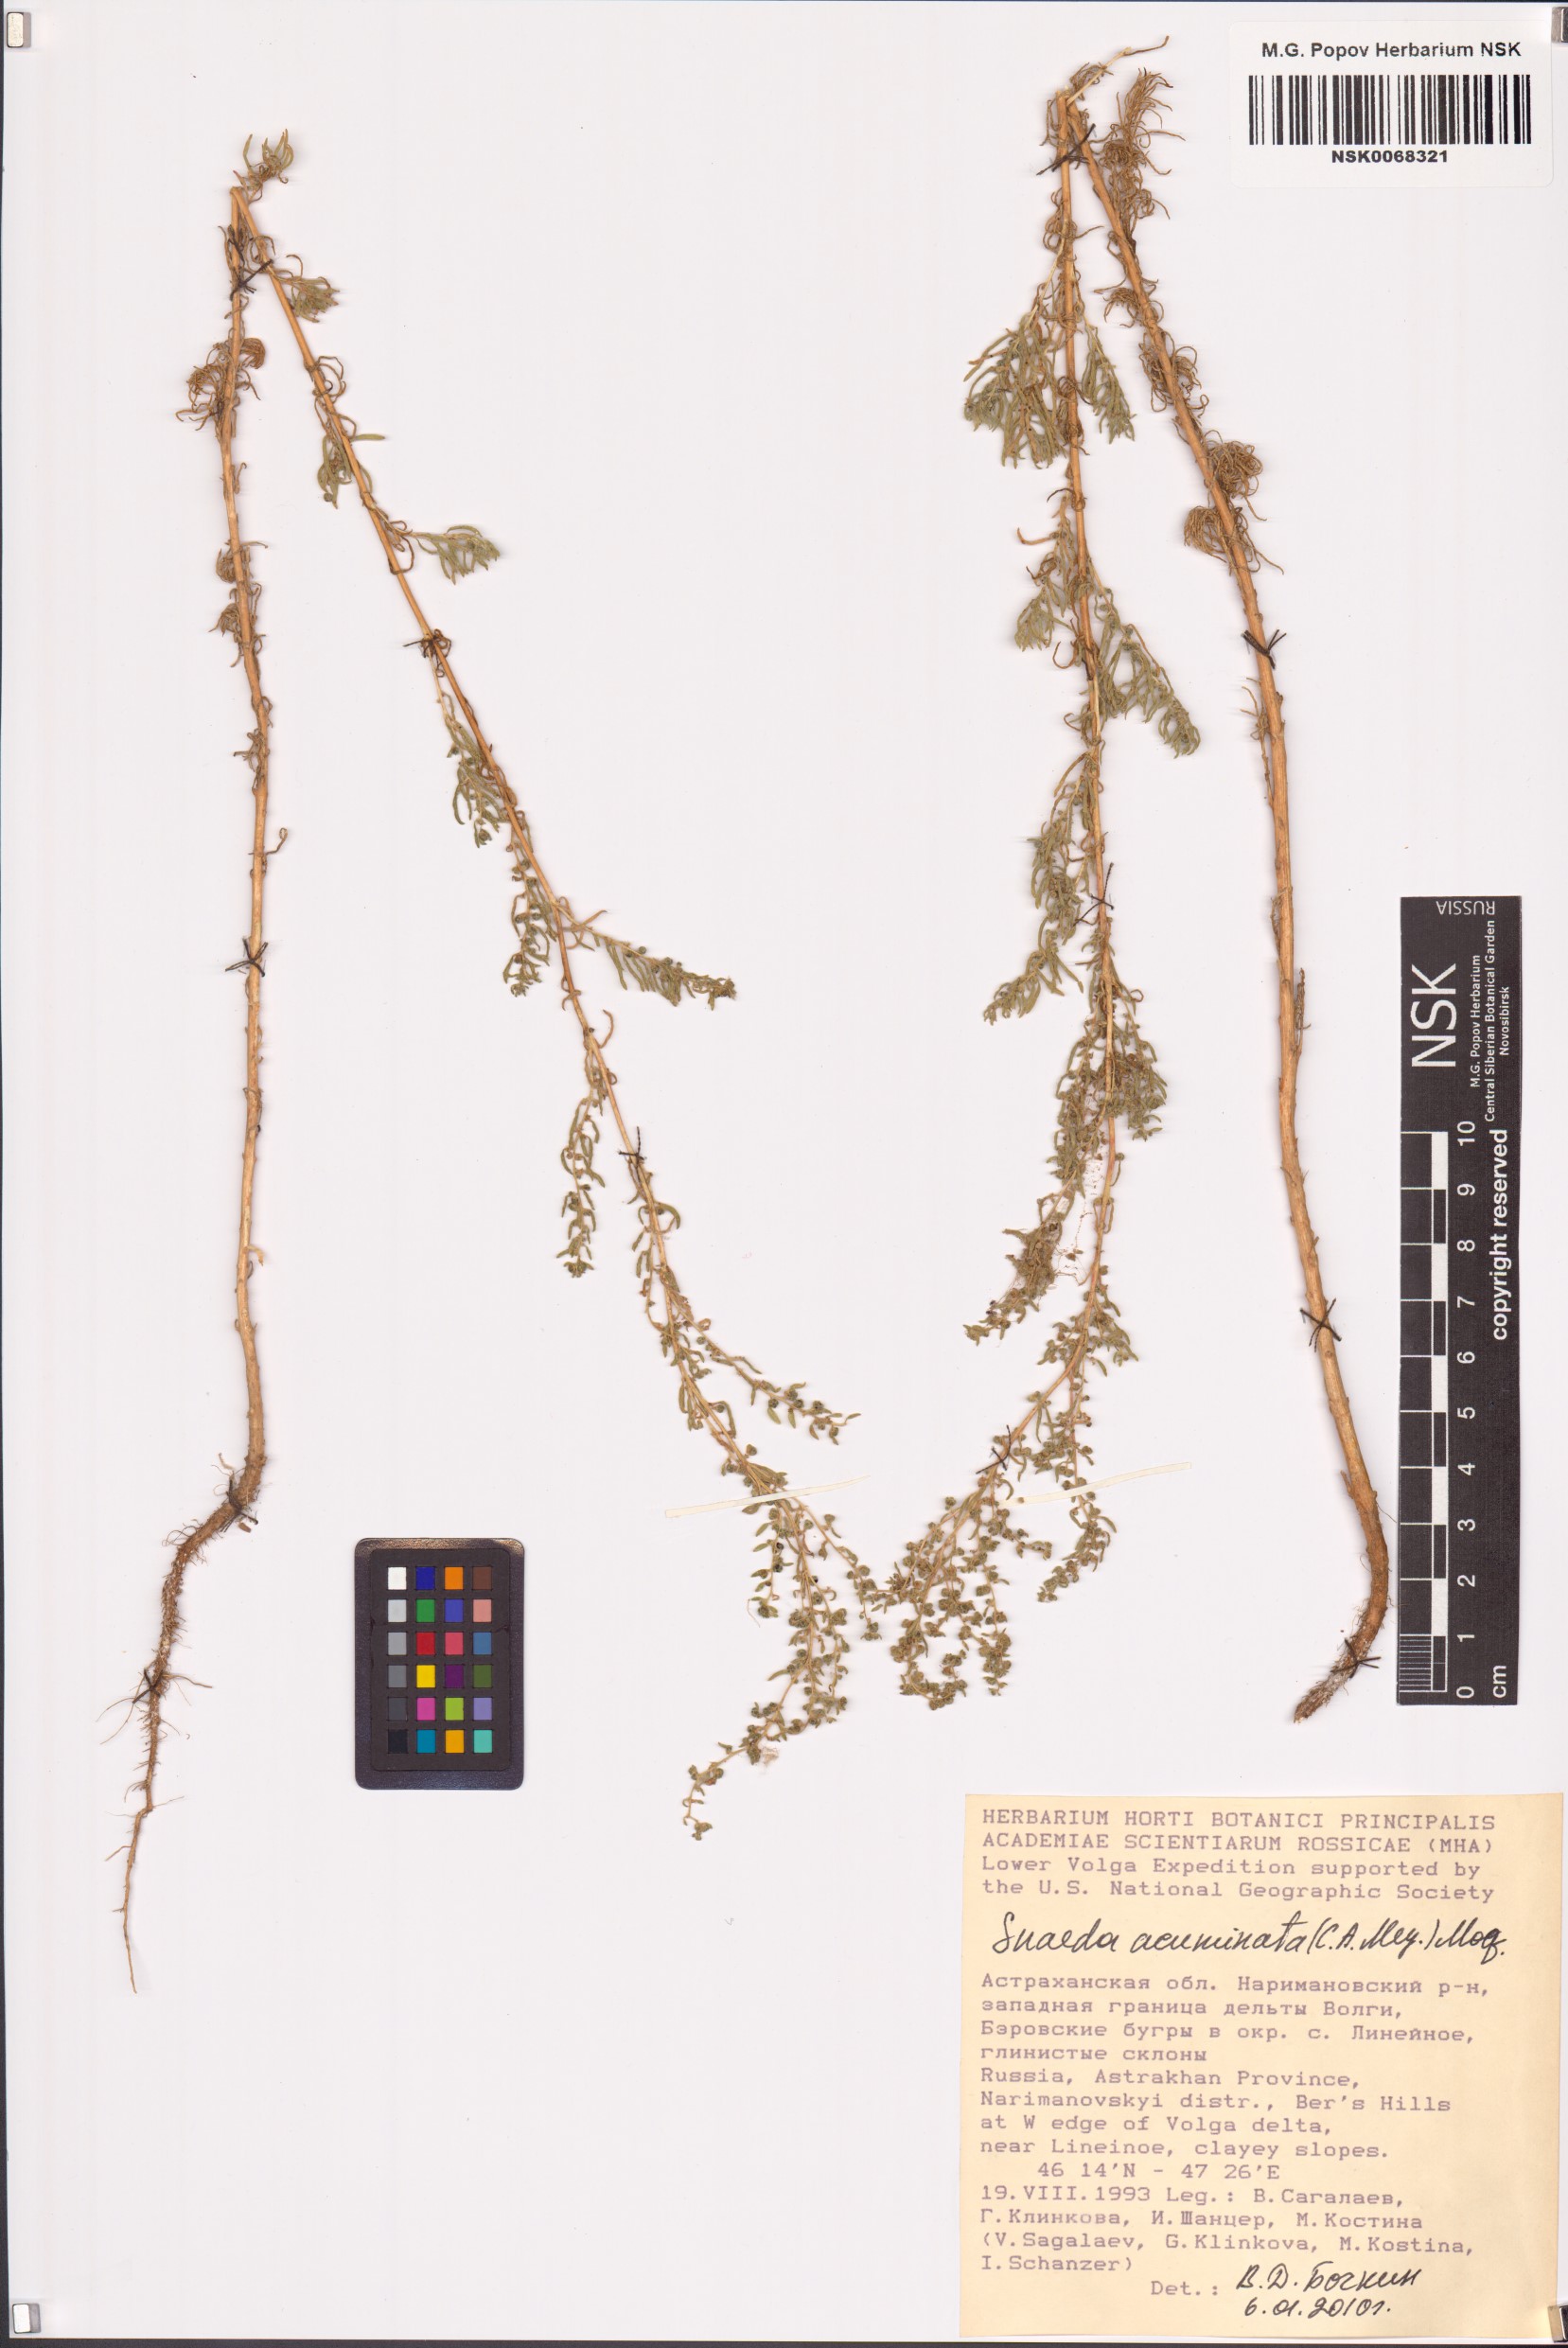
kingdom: Plantae
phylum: Tracheophyta
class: Magnoliopsida
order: Caryophyllales
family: Amaranthaceae
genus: Suaeda
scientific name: Suaeda acuminata
